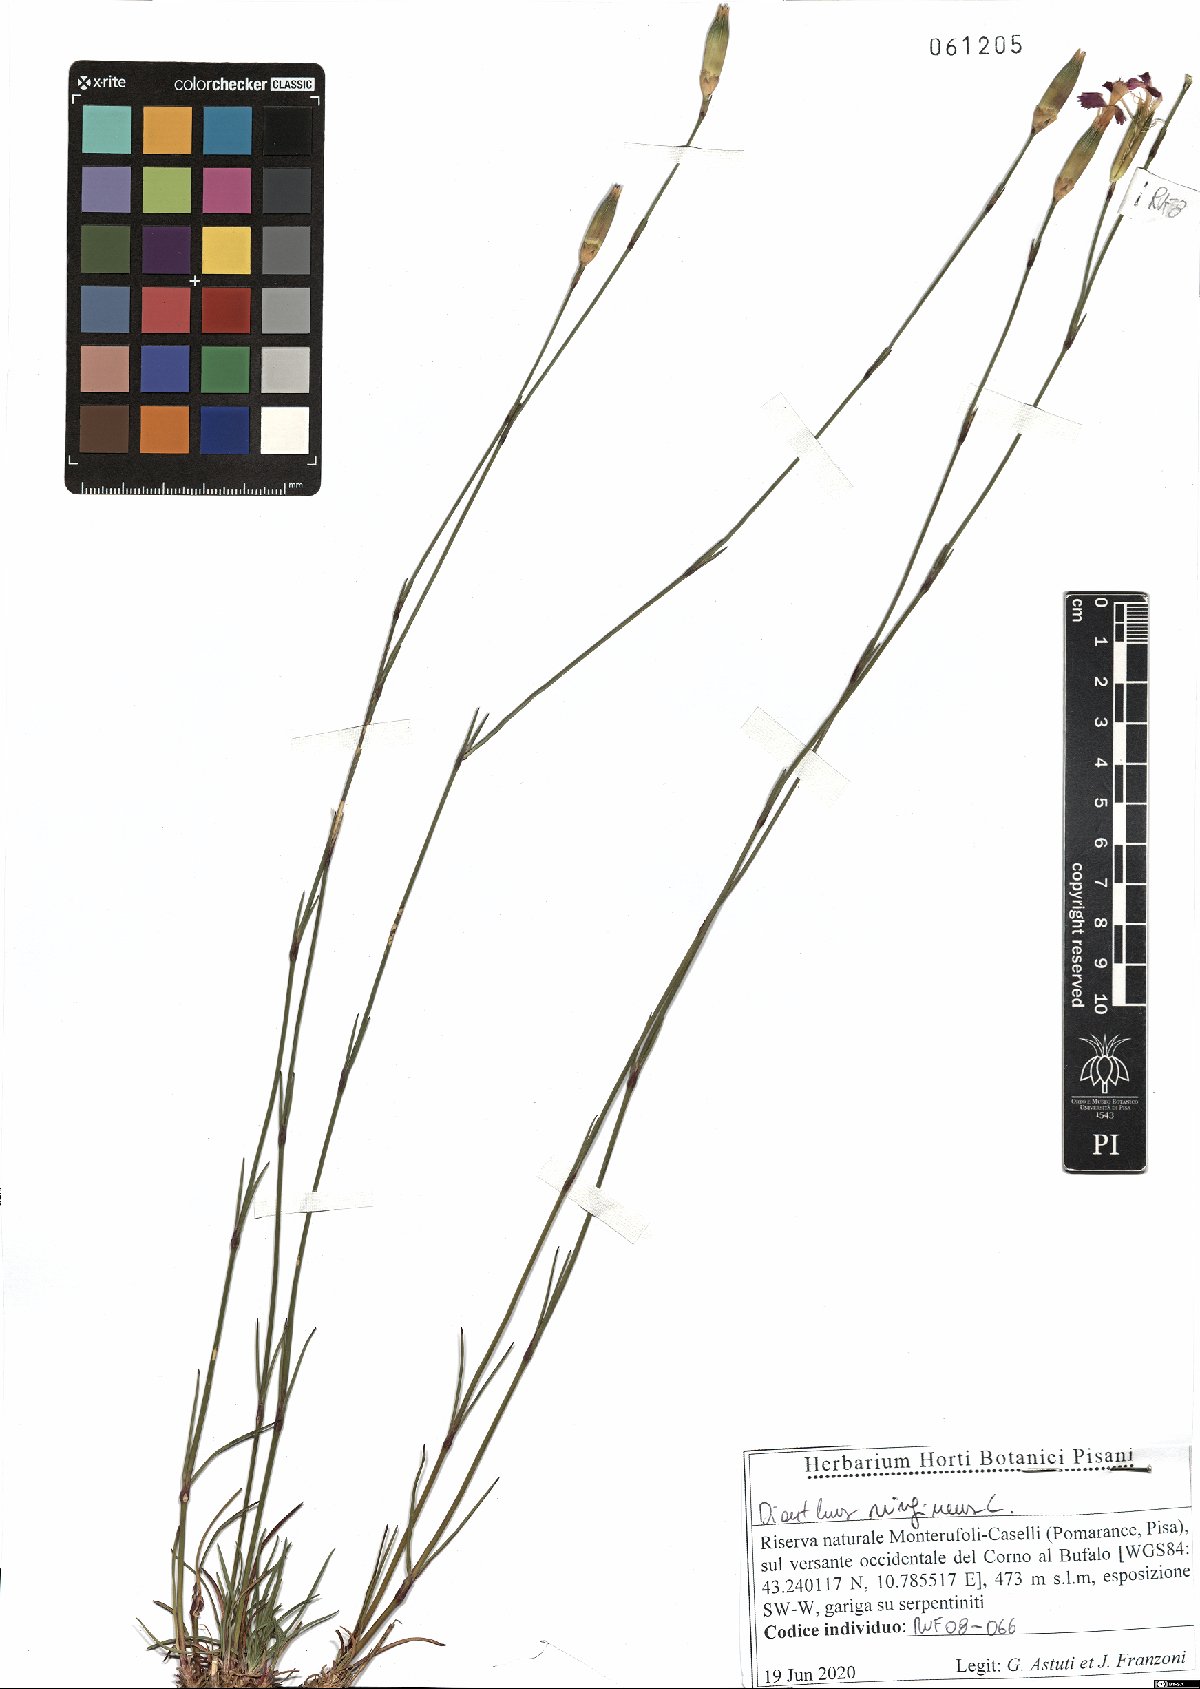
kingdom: Plantae
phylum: Tracheophyta
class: Magnoliopsida
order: Caryophyllales
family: Caryophyllaceae
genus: Dianthus
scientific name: Dianthus virgineus
